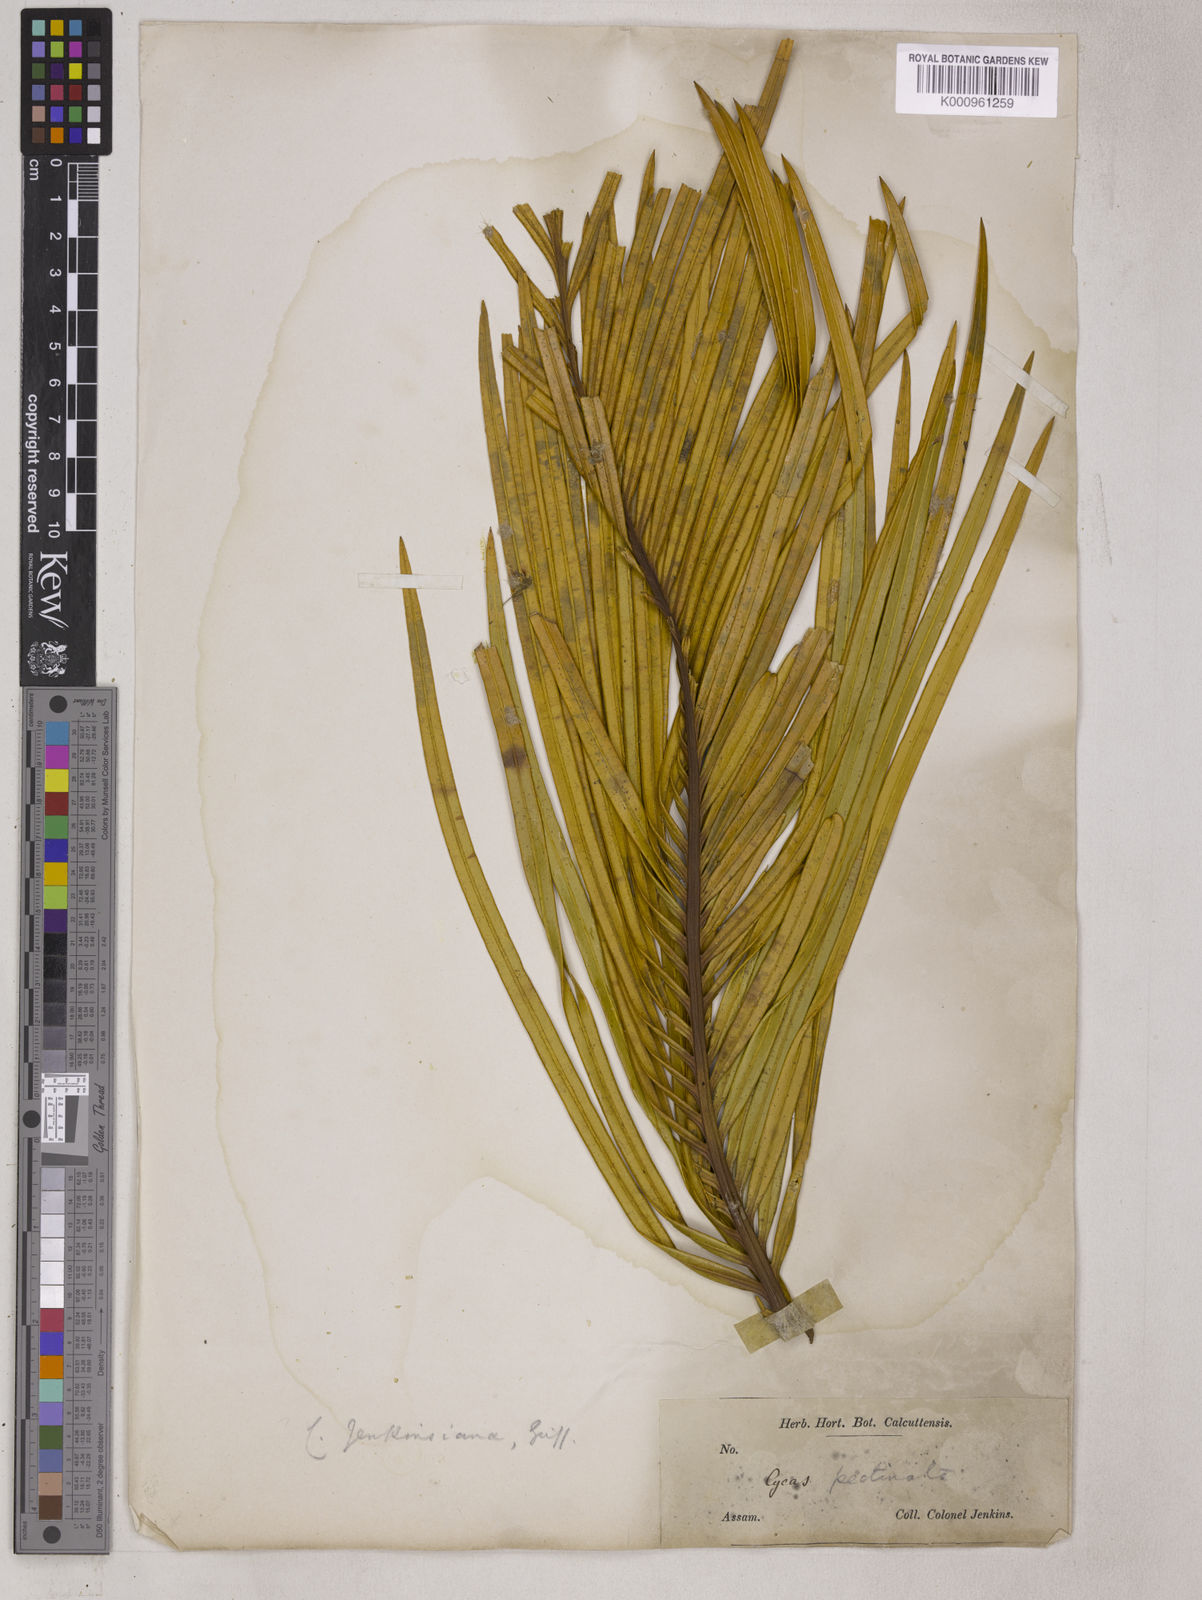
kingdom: Plantae
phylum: Tracheophyta
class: Cycadopsida
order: Cycadales
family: Cycadaceae
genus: Cycas
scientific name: Cycas pectinata
